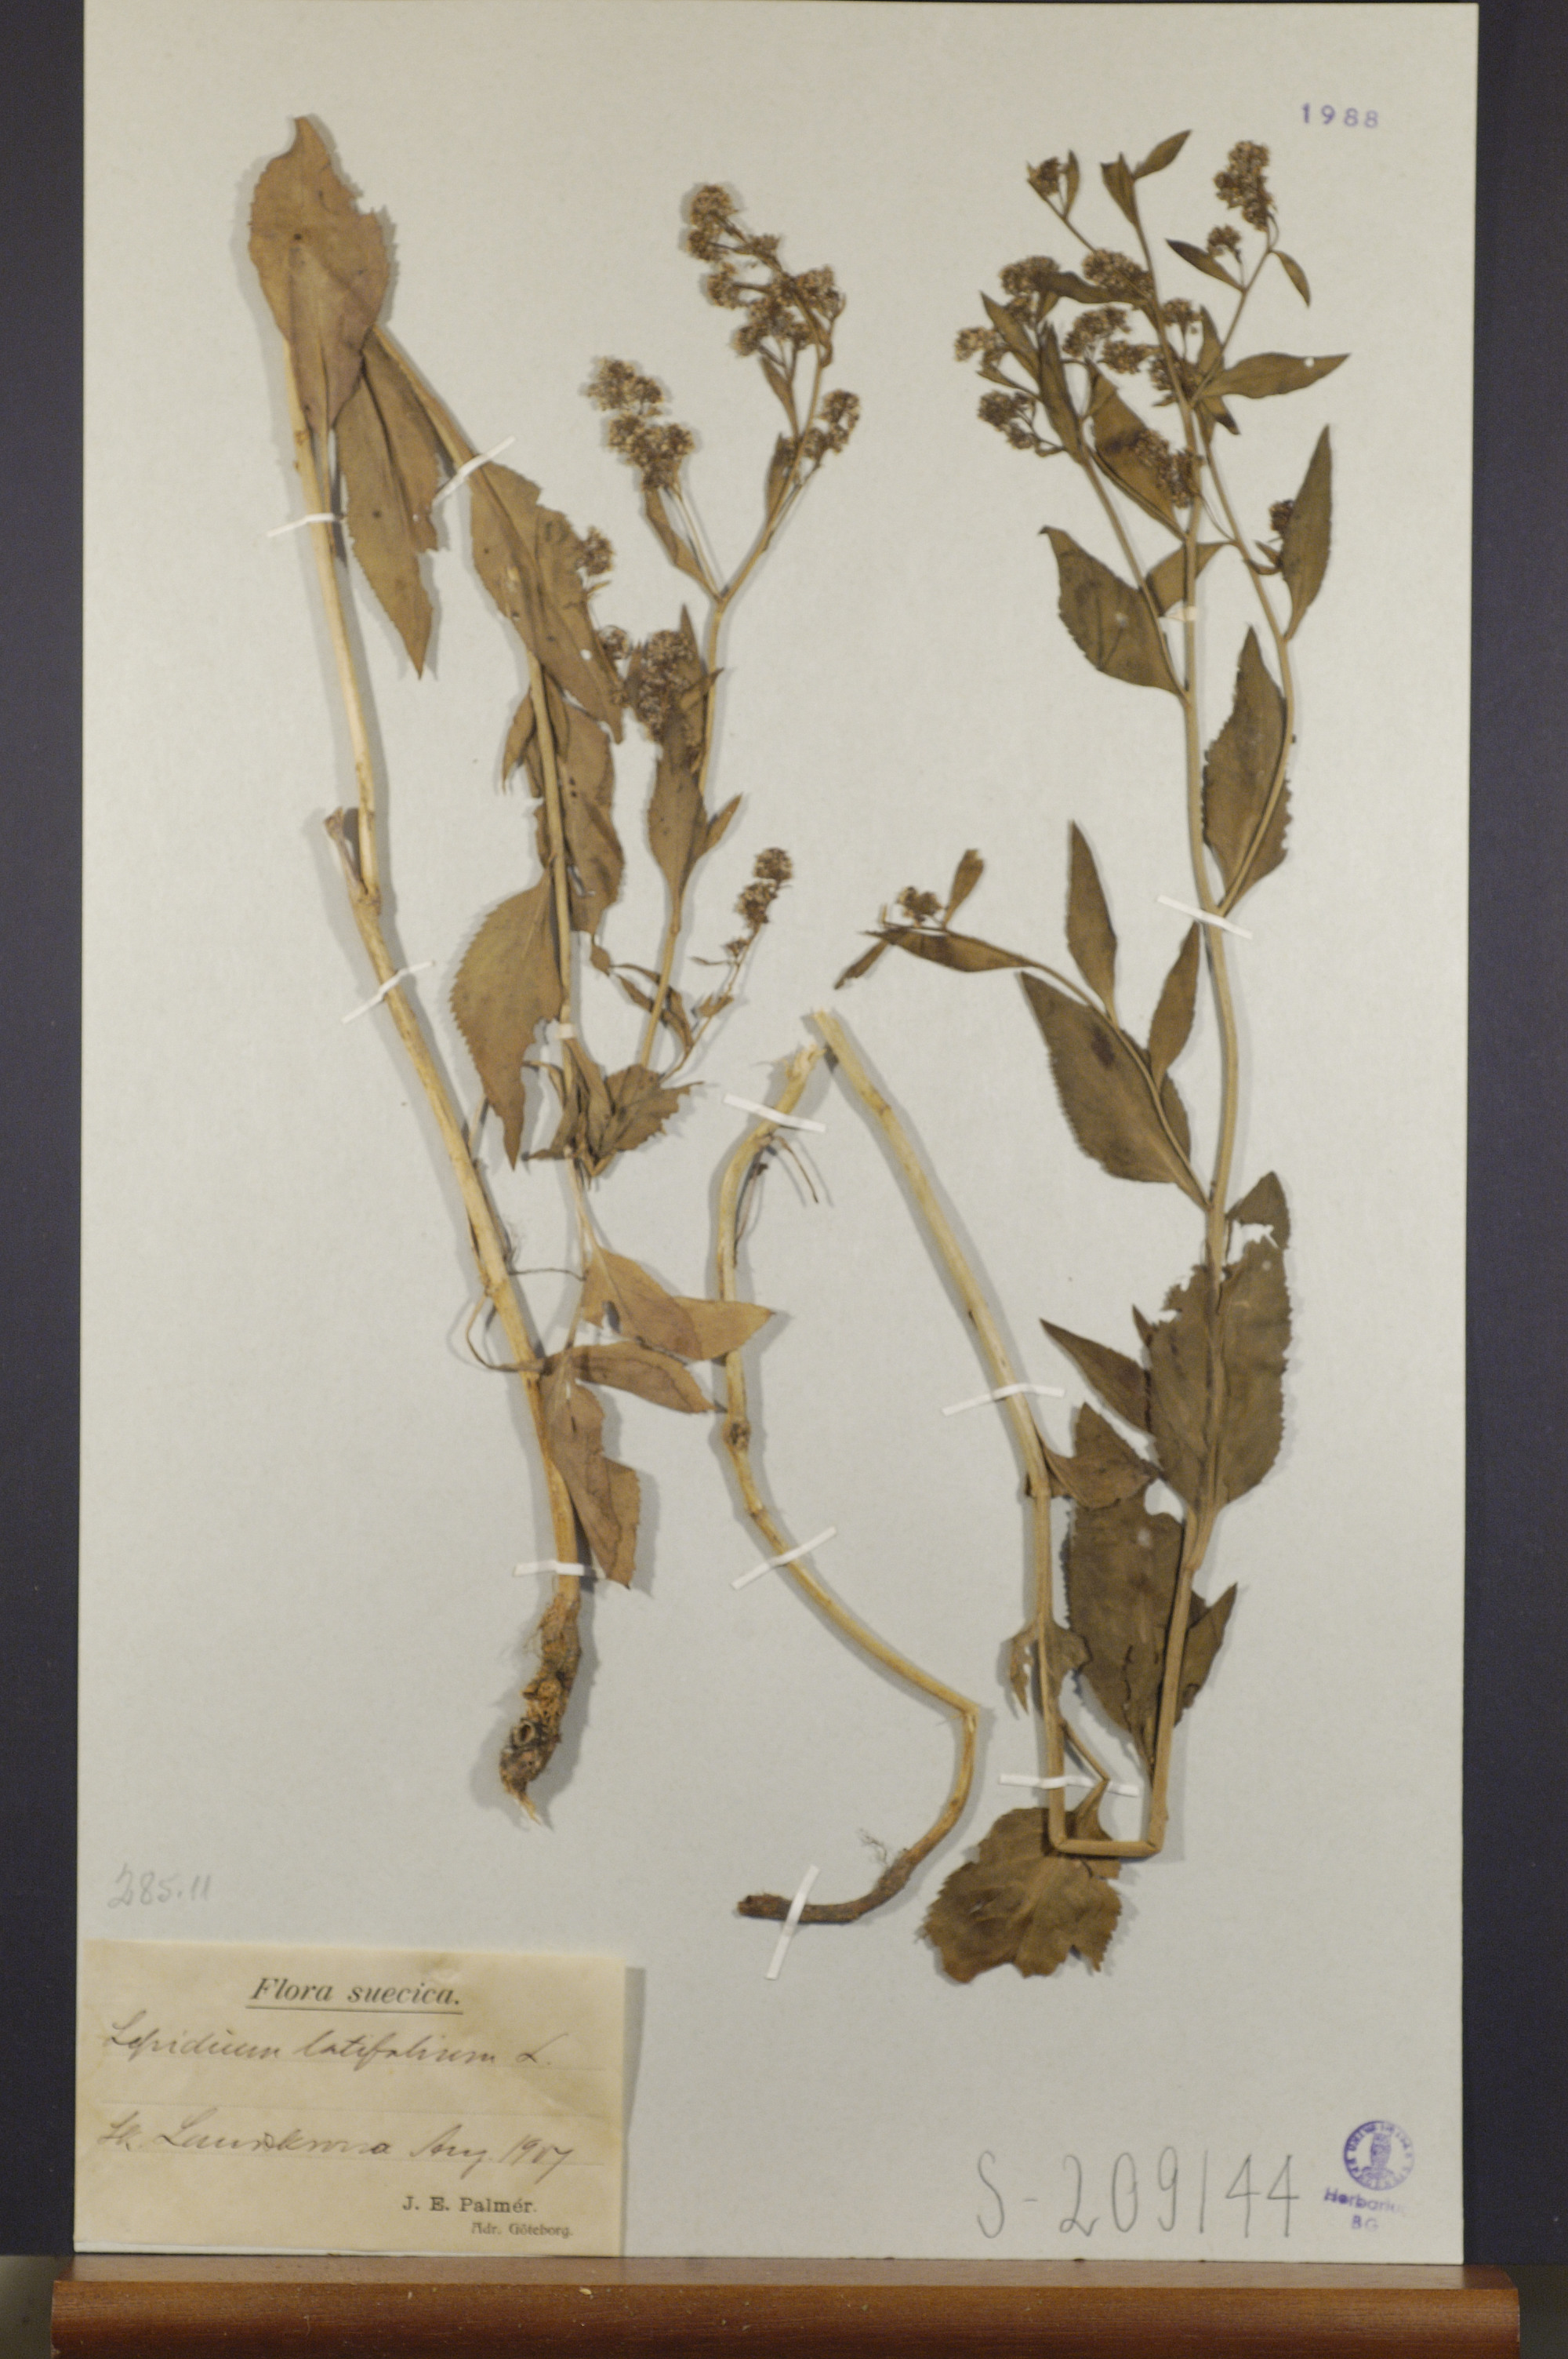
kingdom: Plantae
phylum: Tracheophyta
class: Magnoliopsida
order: Brassicales
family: Brassicaceae
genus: Lepidium
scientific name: Lepidium latifolium
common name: Dittander
